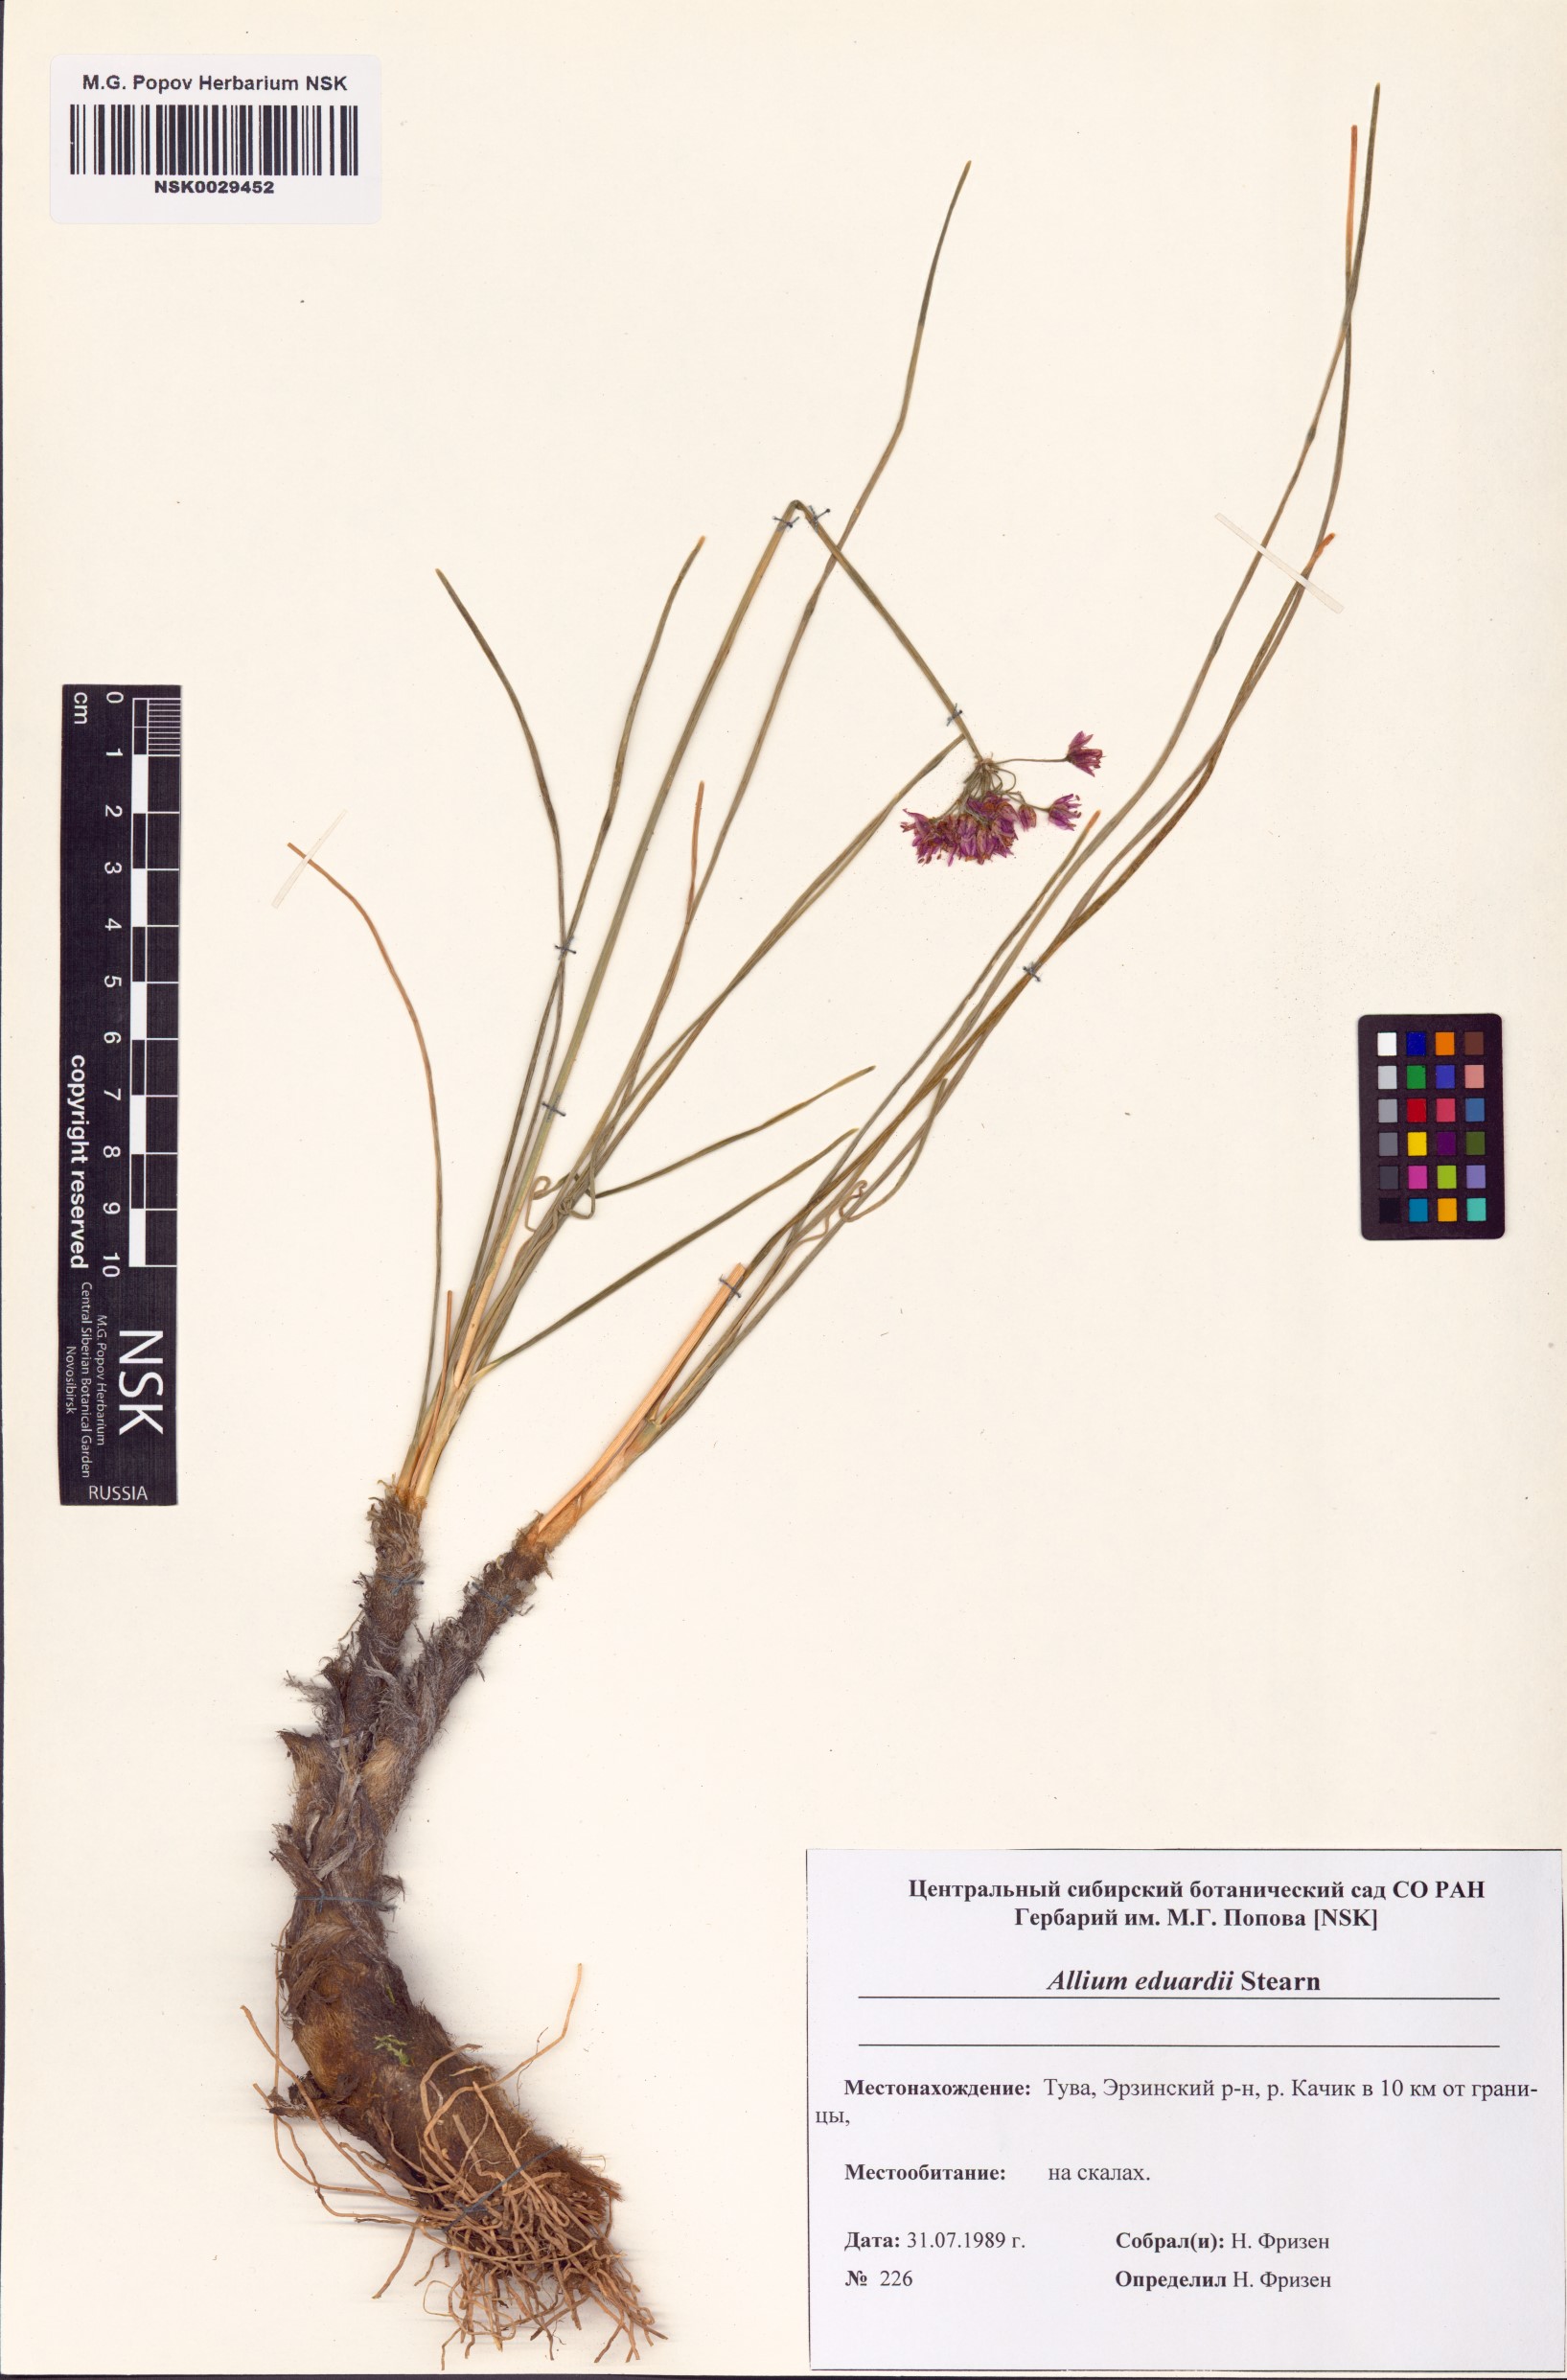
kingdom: Plantae
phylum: Tracheophyta
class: Liliopsida
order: Asparagales
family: Amaryllidaceae
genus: Allium
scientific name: Allium eduardi
